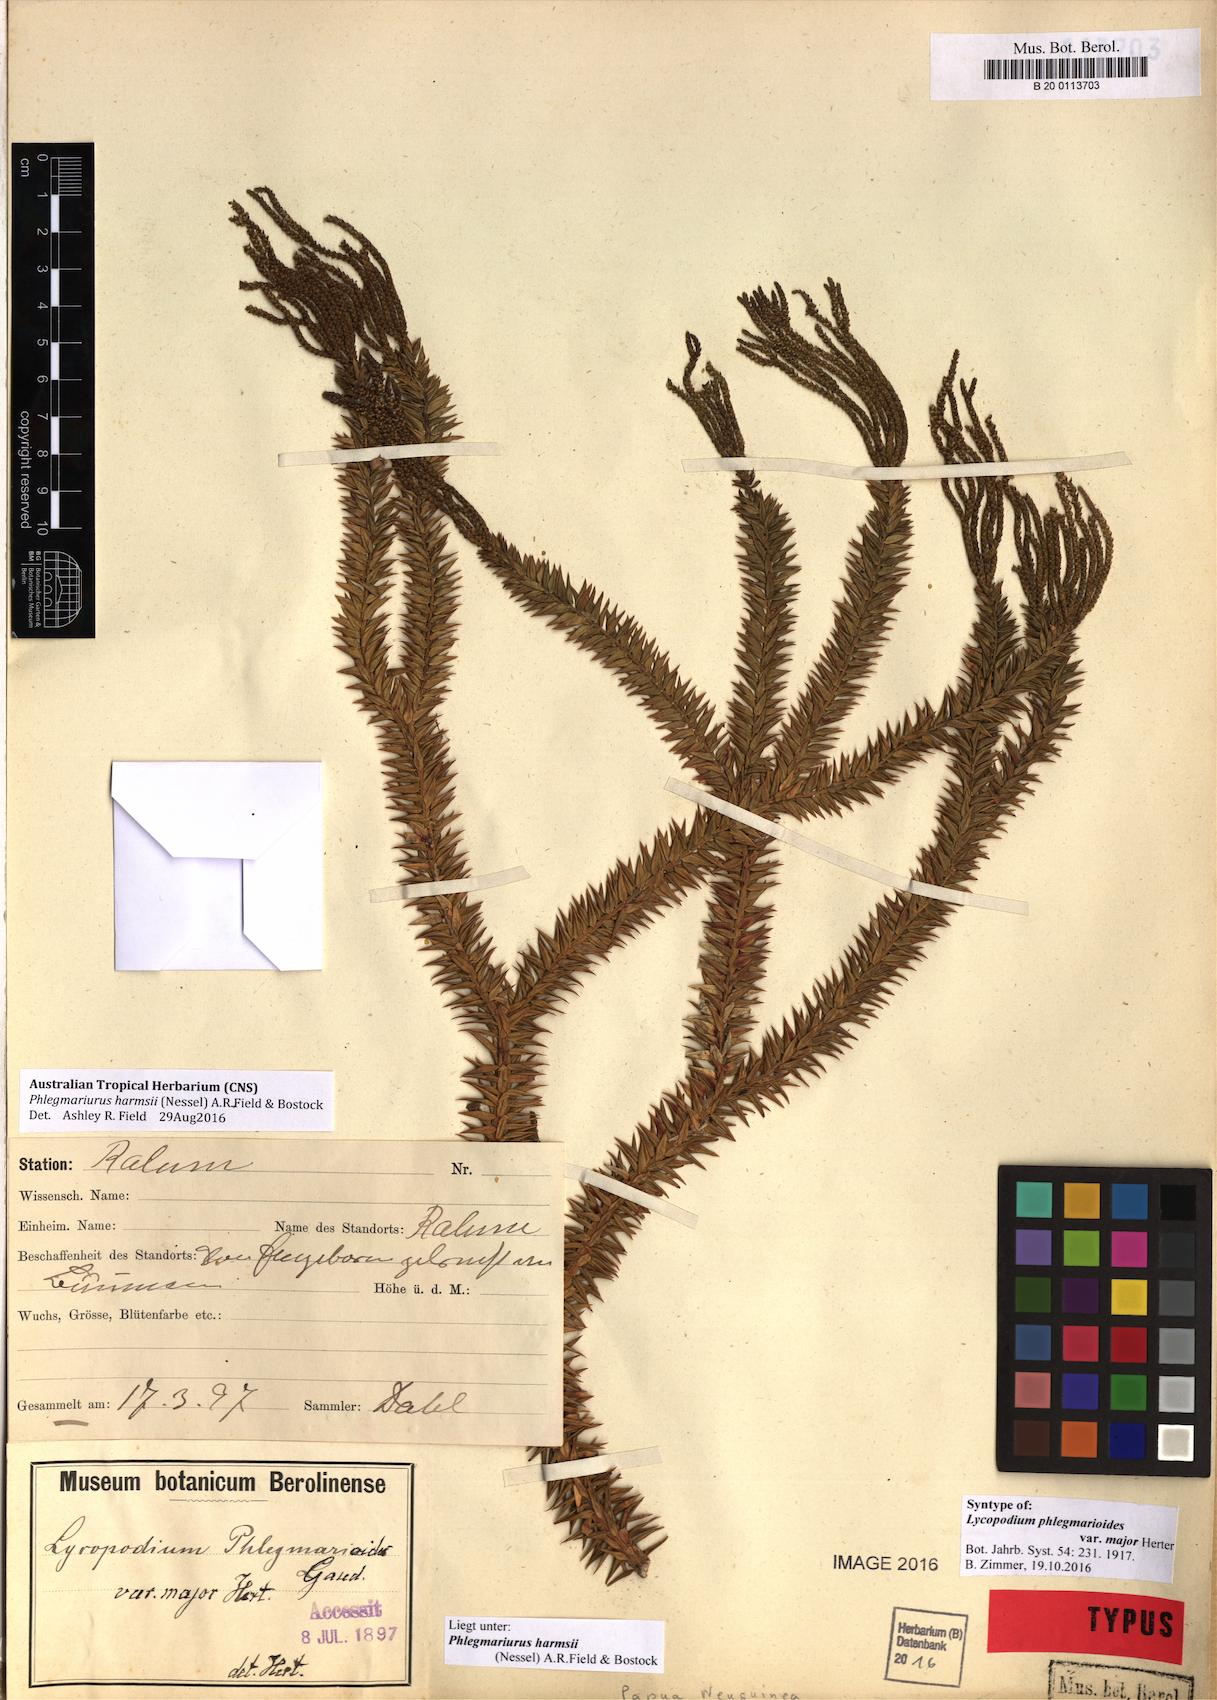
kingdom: Plantae
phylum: Tracheophyta
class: Lycopodiopsida
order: Lycopodiales
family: Lycopodiaceae
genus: Phlegmariurus
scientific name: Phlegmariurus harmsii
